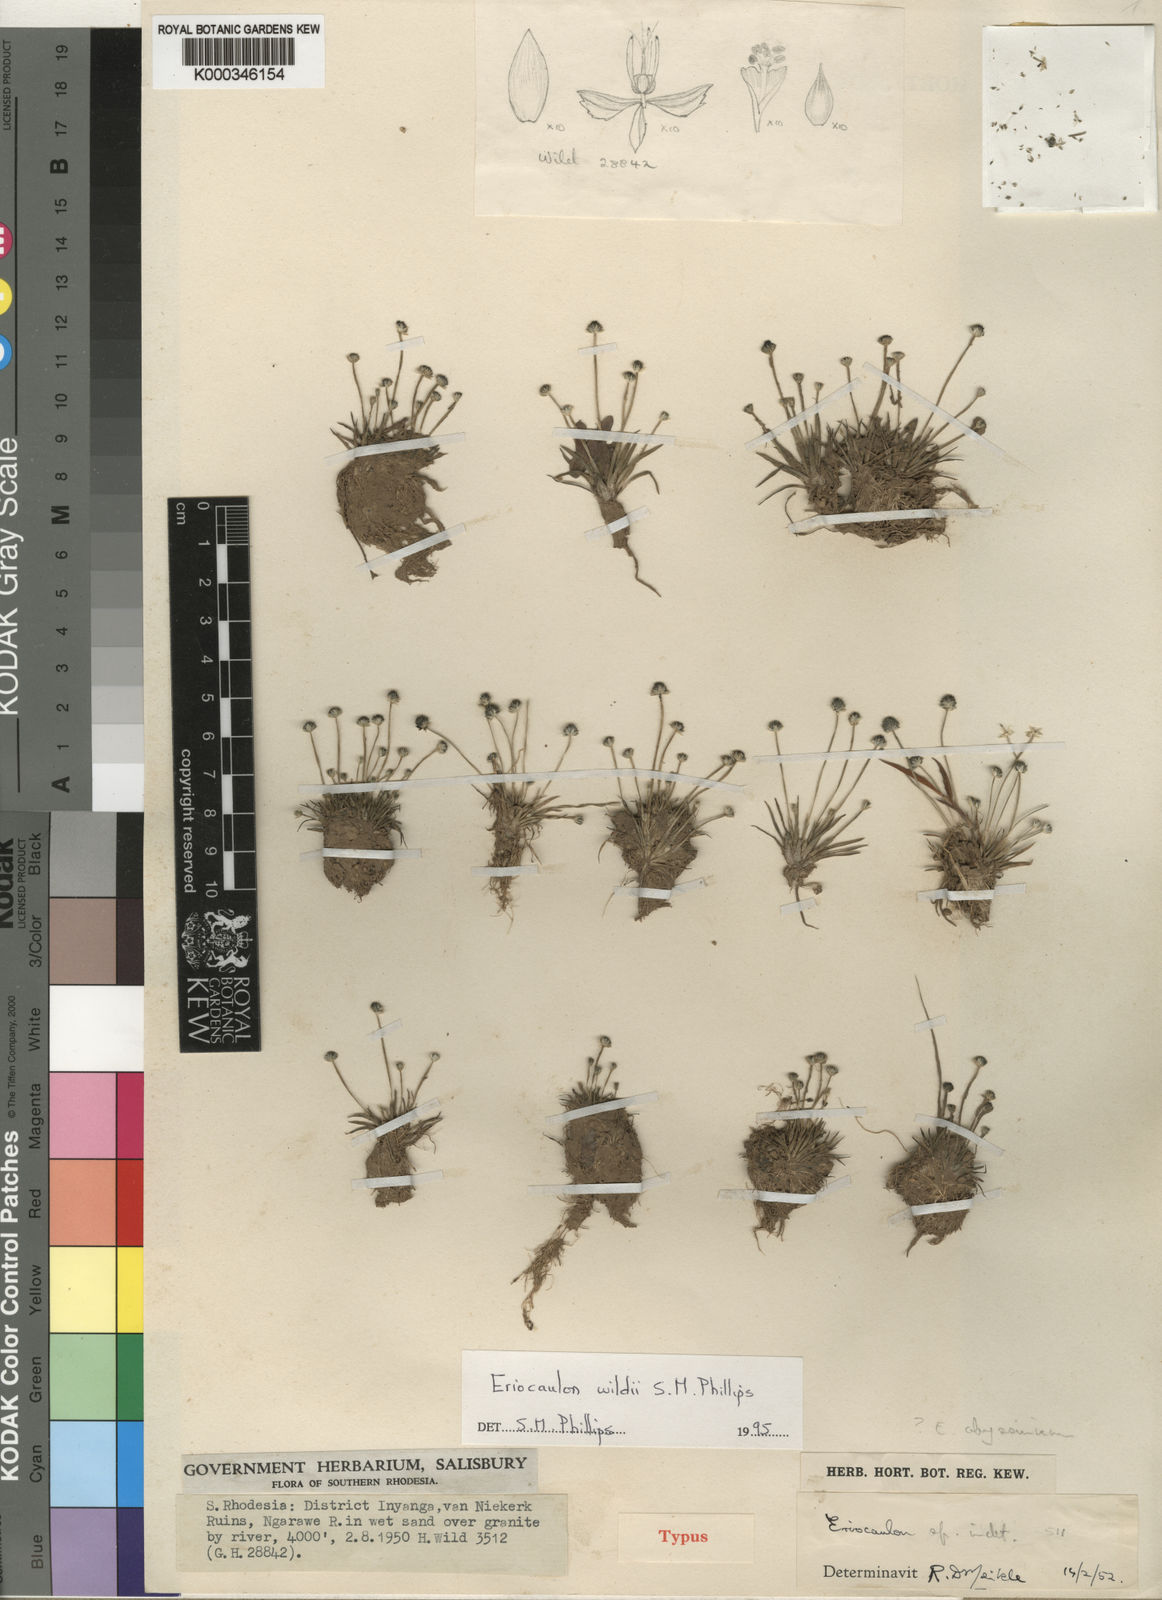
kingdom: Plantae
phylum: Tracheophyta
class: Liliopsida
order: Poales
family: Eriocaulaceae
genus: Eriocaulon
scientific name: Eriocaulon wildii
